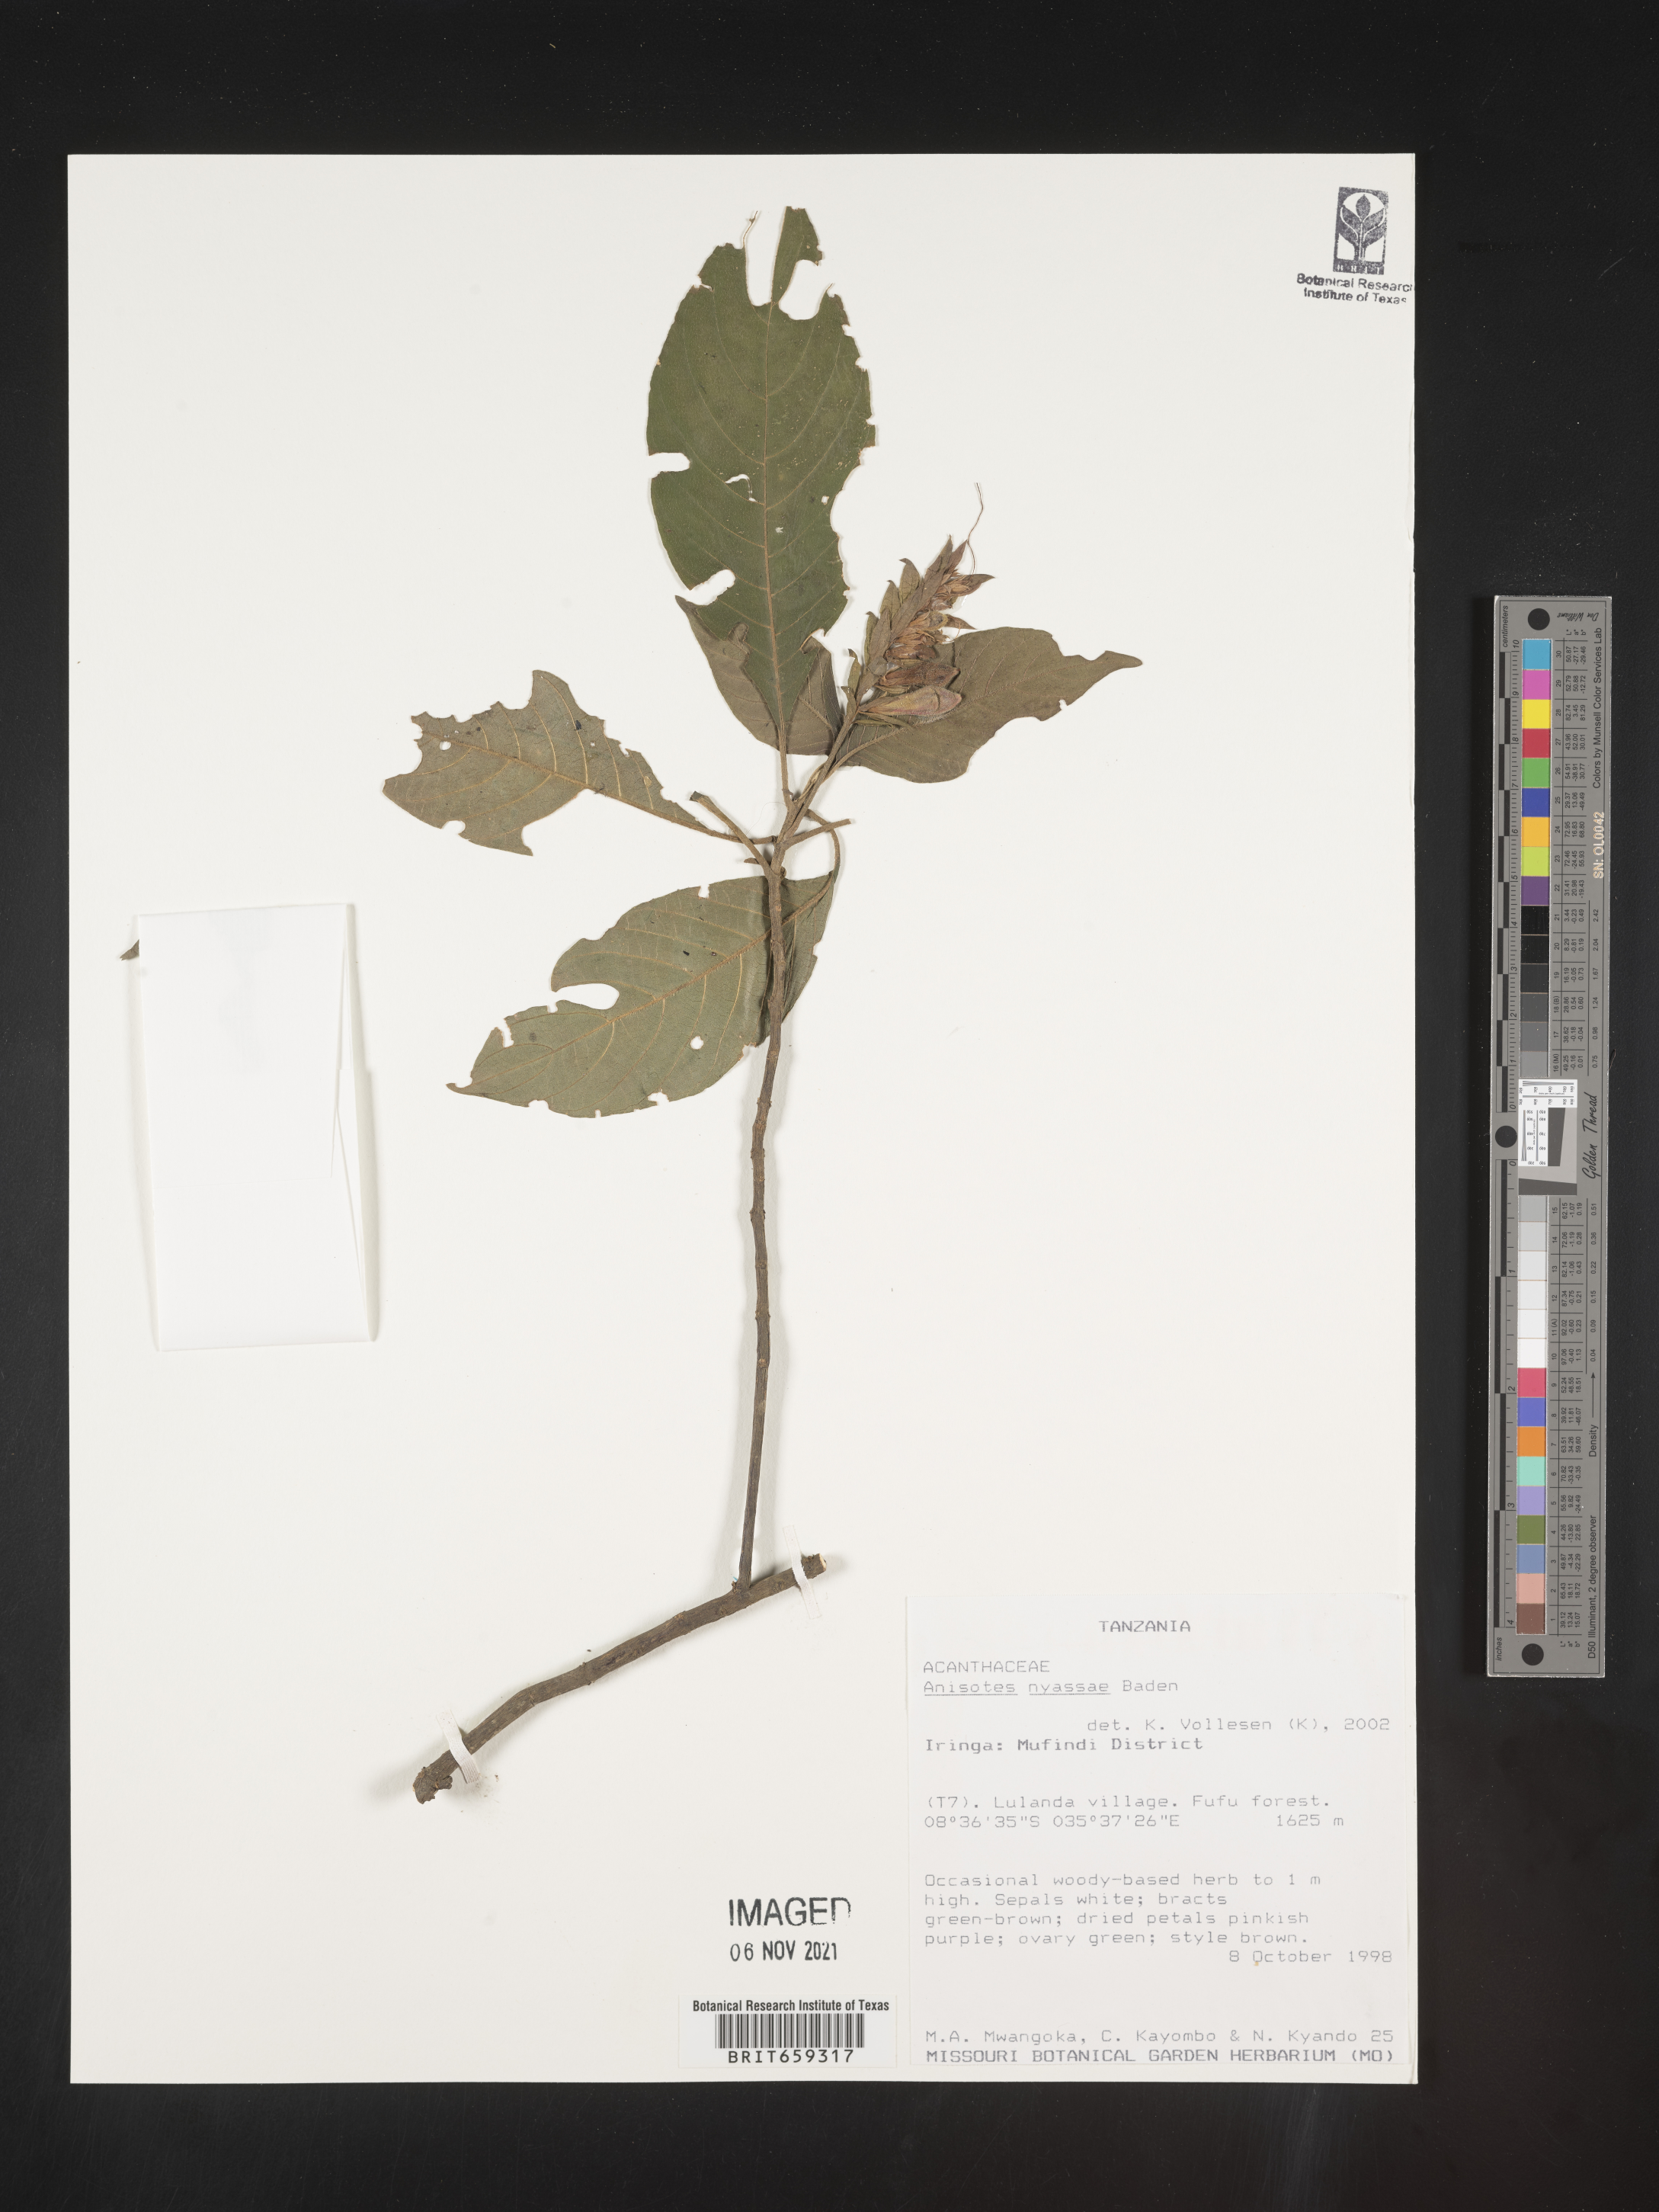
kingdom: Plantae
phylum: Tracheophyta
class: Magnoliopsida
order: Lamiales
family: Acanthaceae
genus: Anisotes
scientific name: Anisotes nyassae
